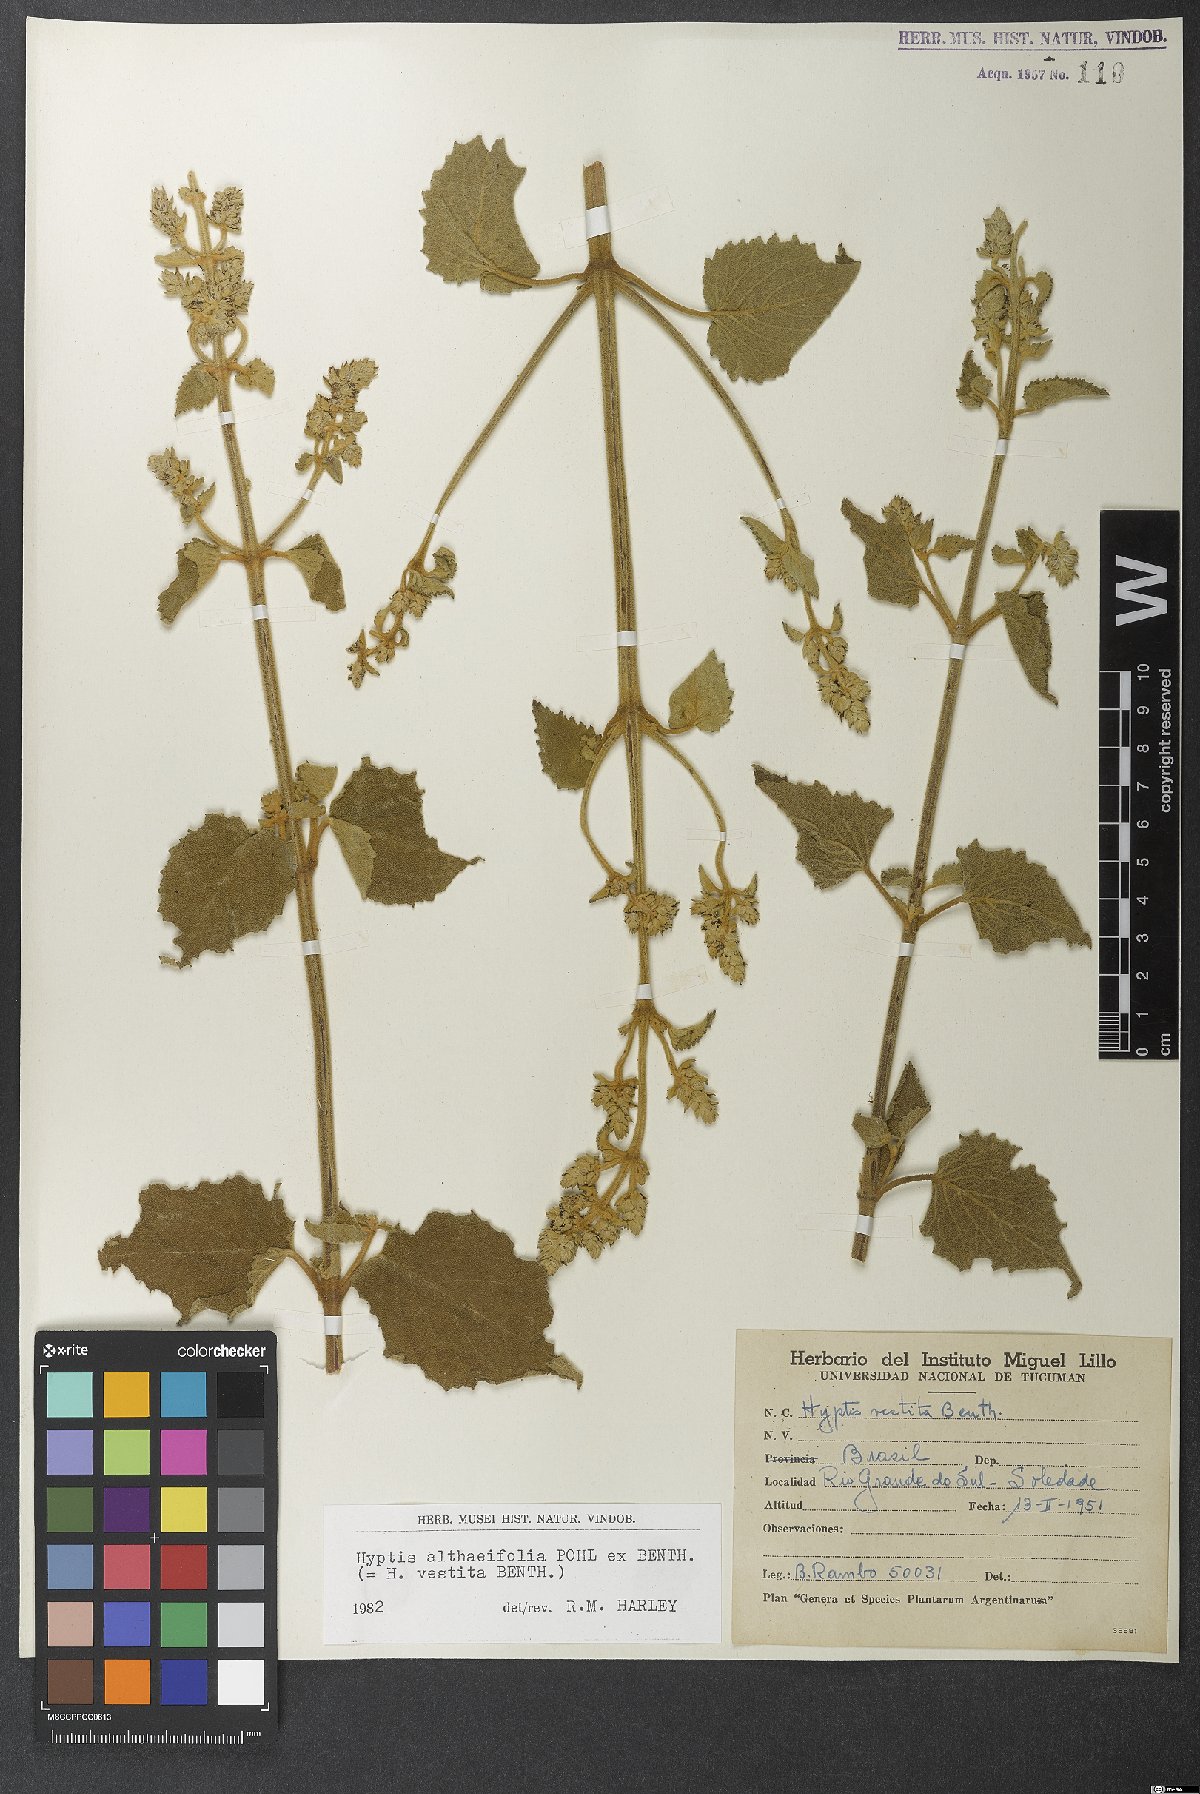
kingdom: Plantae
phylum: Tracheophyta
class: Magnoliopsida
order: Lamiales
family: Lamiaceae
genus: Cantinoa
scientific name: Cantinoa althaeifolia
